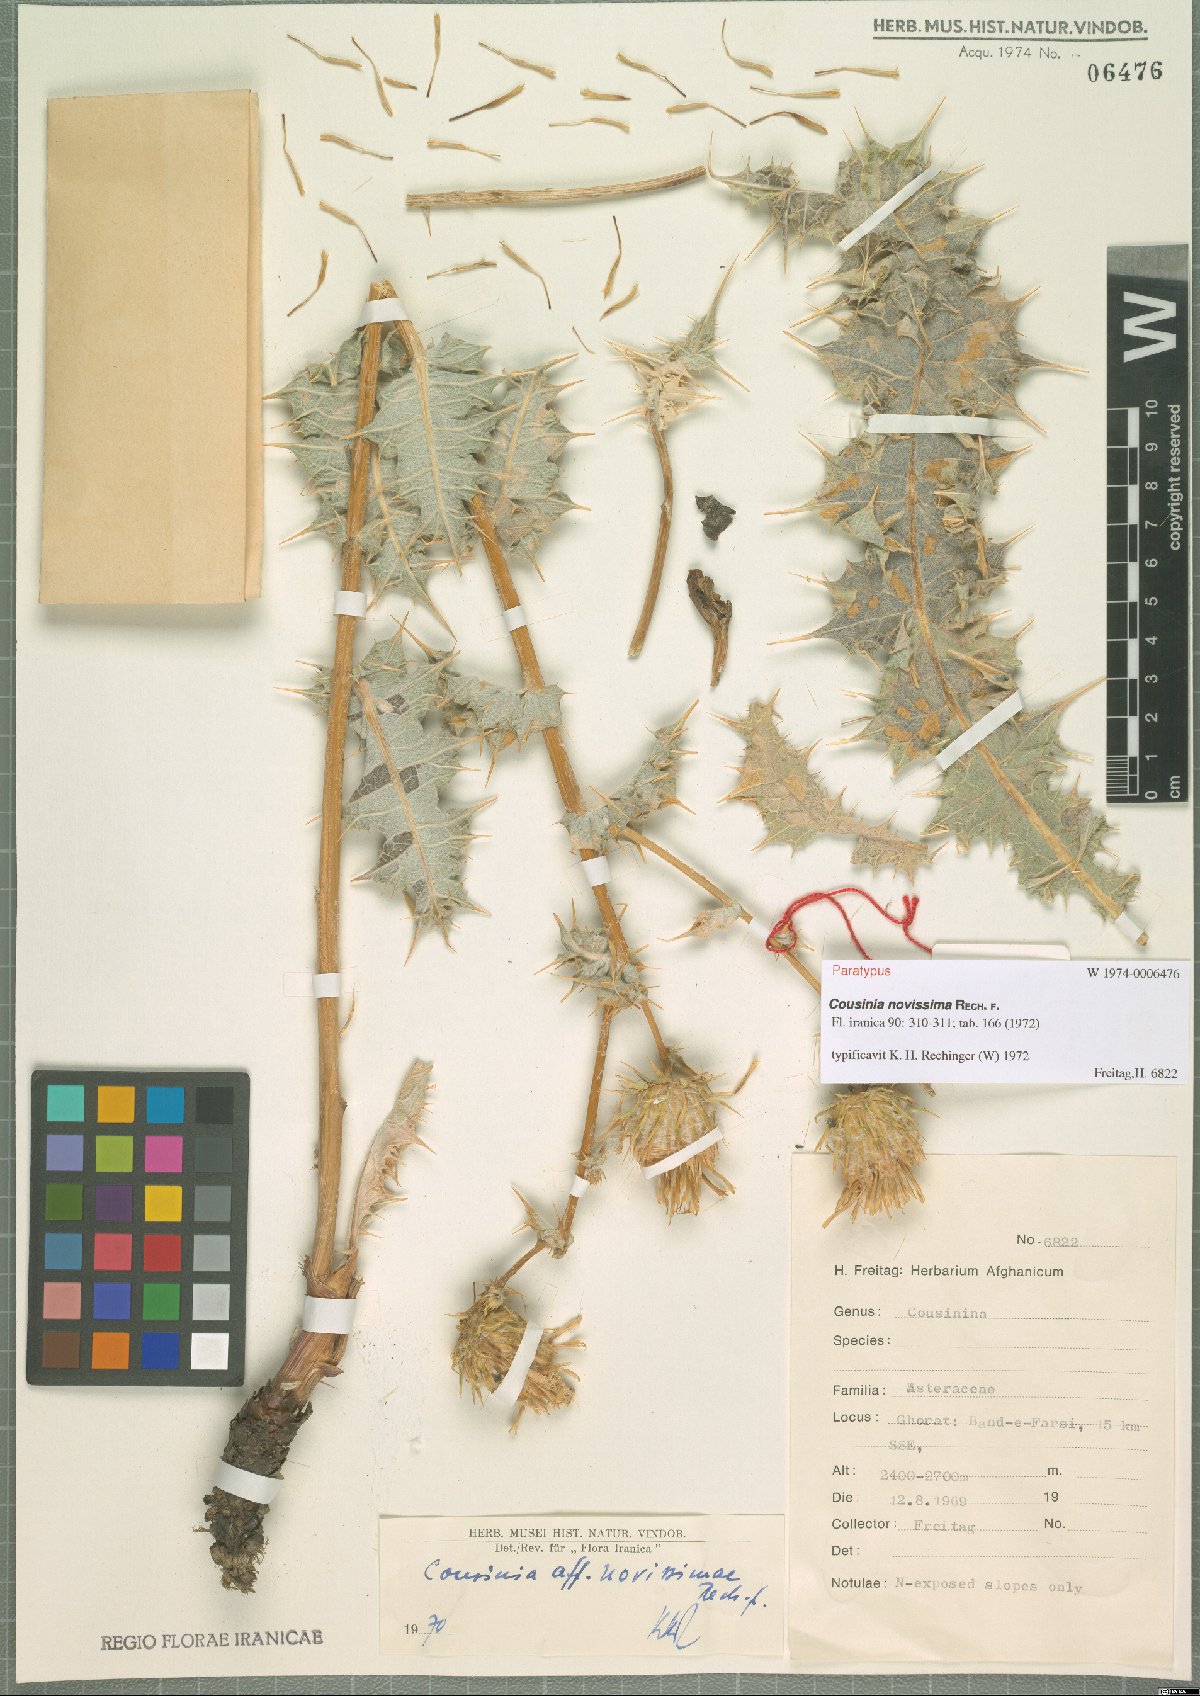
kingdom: Plantae
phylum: Tracheophyta
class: Magnoliopsida
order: Asterales
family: Asteraceae
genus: Cousinia
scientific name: Cousinia novissima
